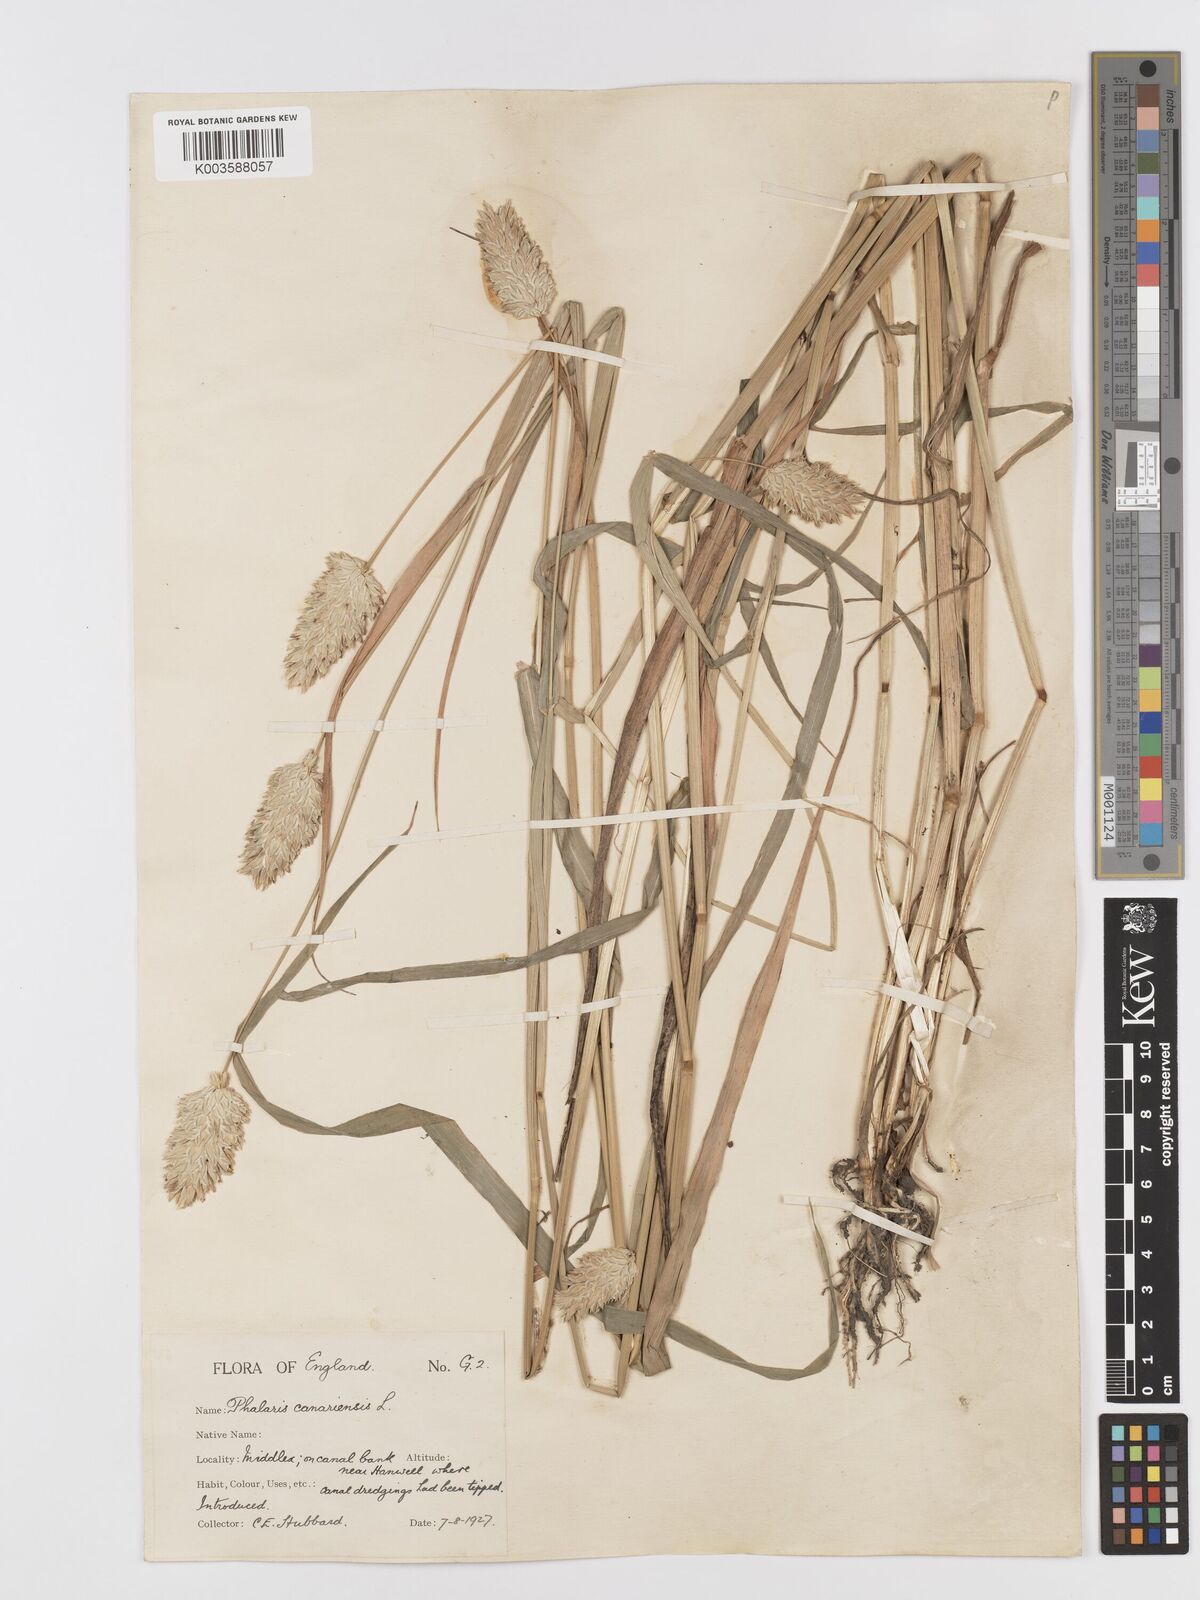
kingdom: Plantae
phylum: Tracheophyta
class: Liliopsida
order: Poales
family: Poaceae
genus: Phalaris
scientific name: Phalaris canariensis
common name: Annual canarygrass
